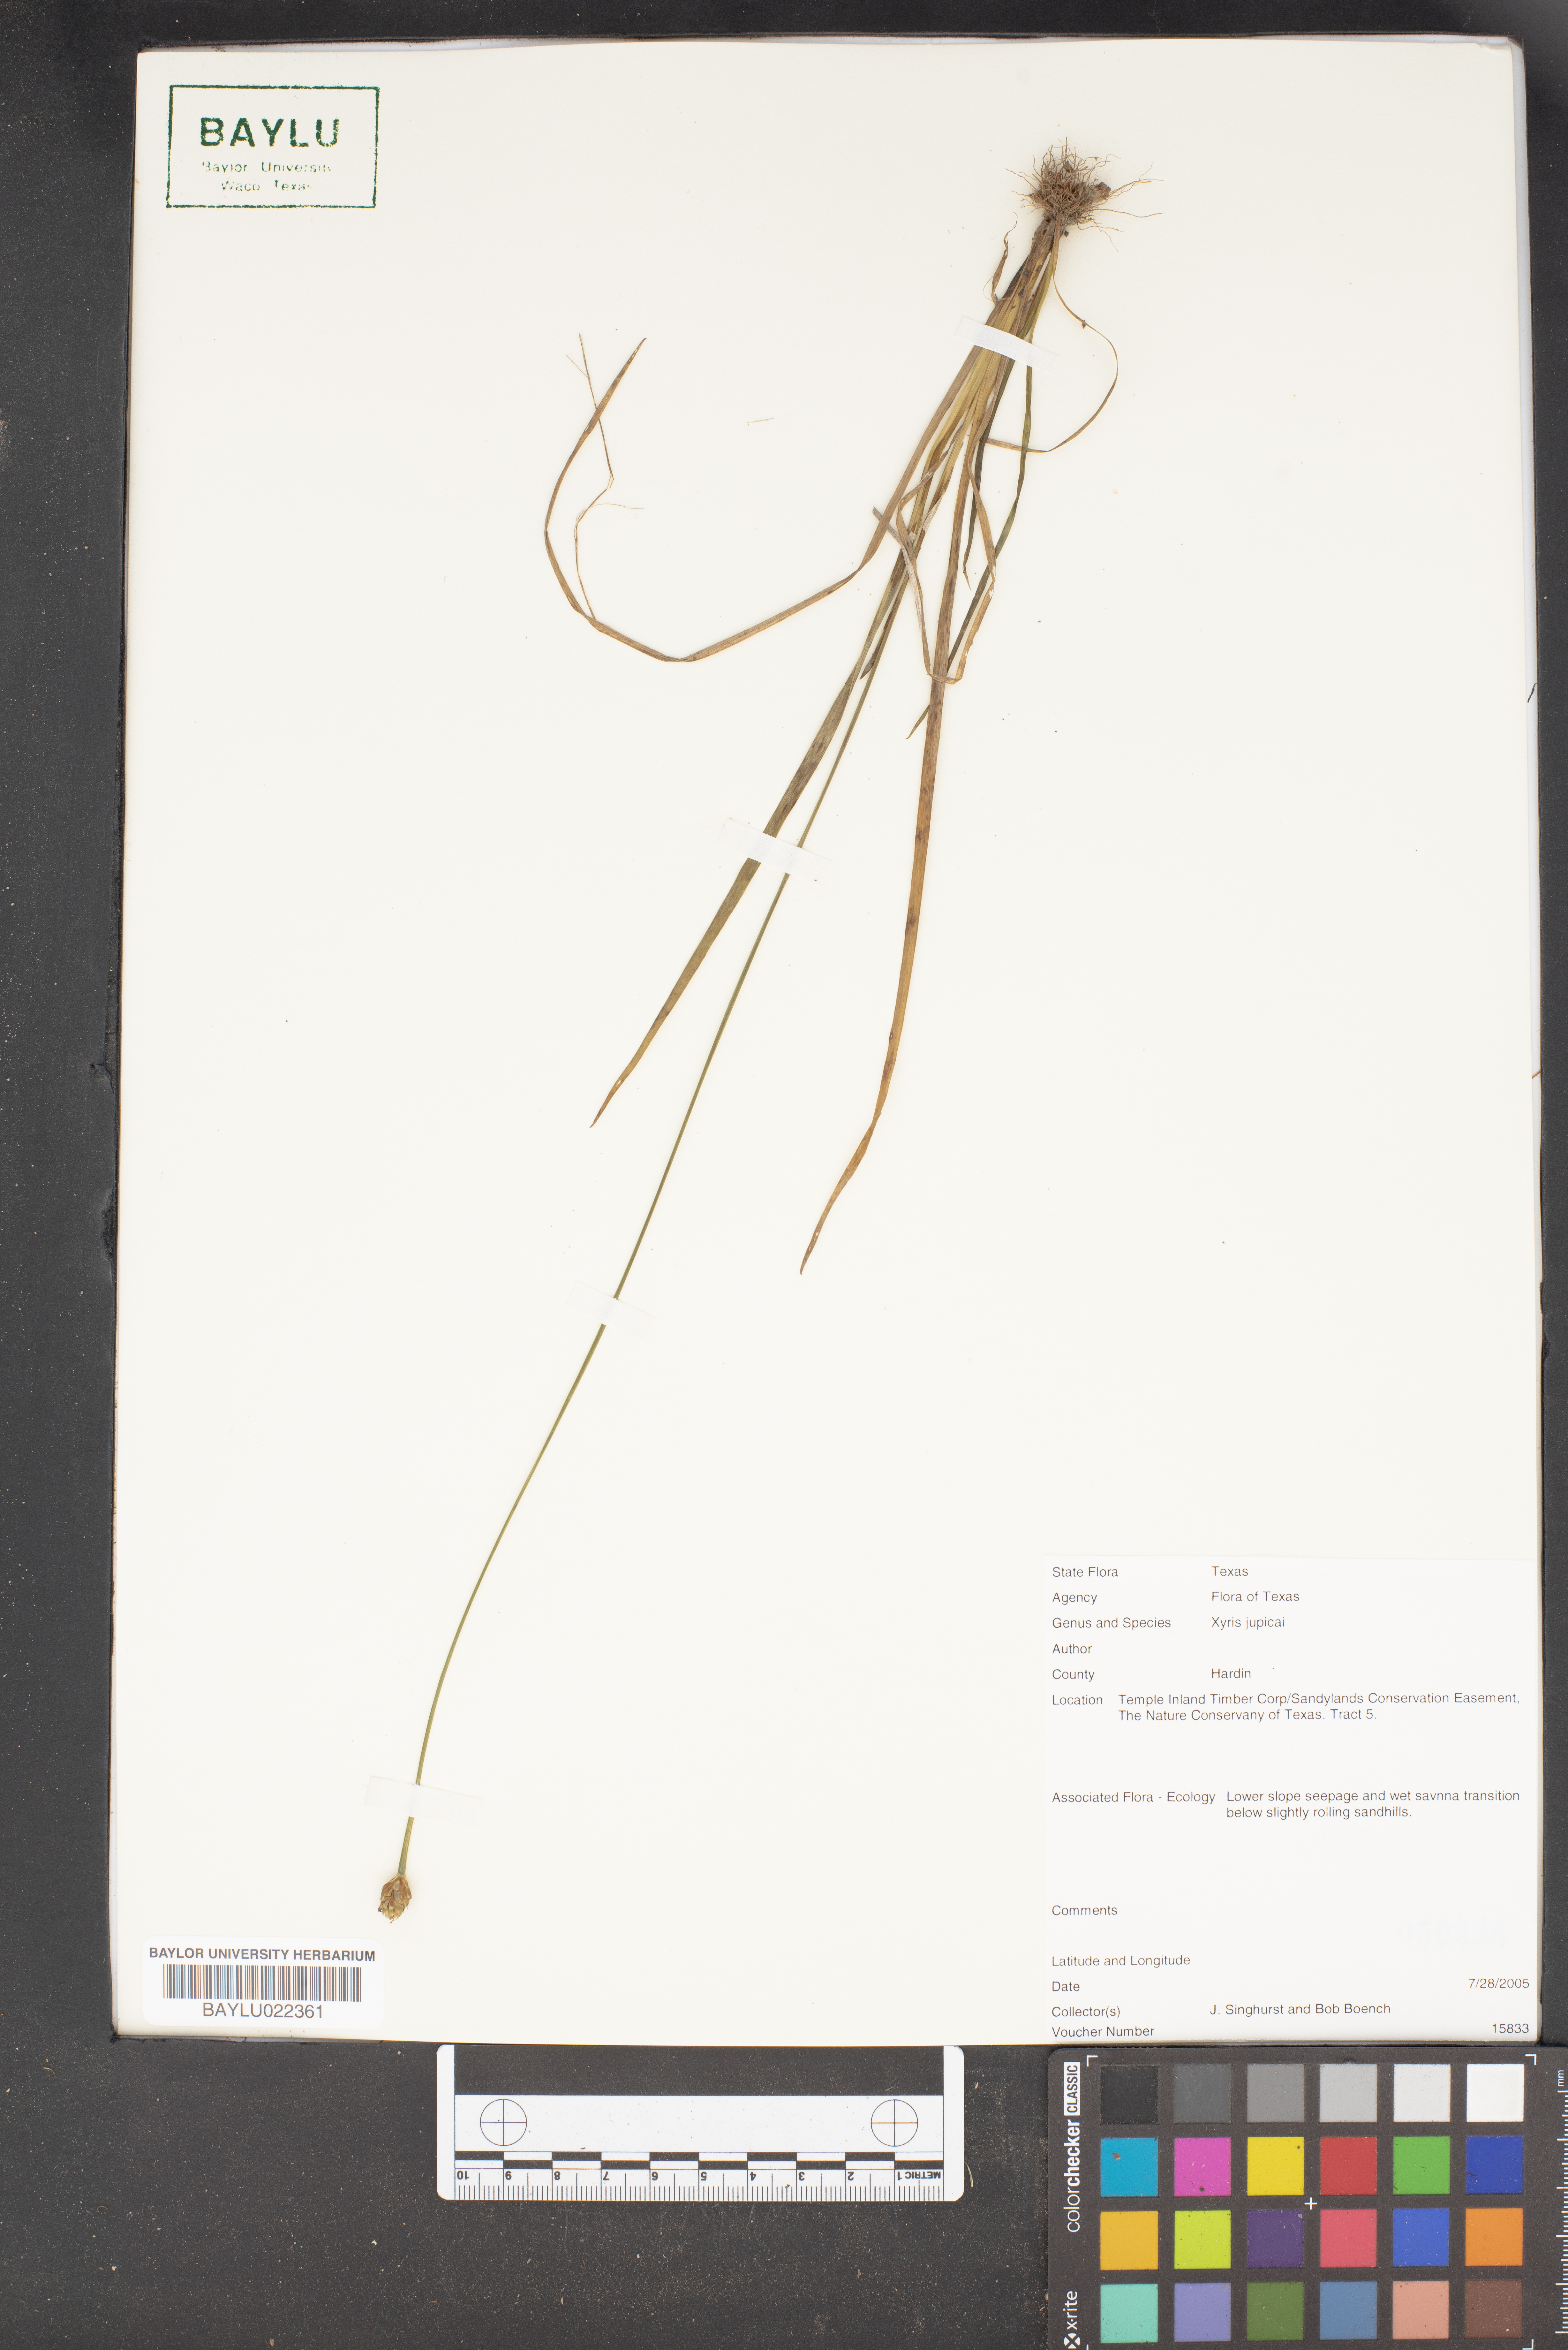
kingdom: Plantae
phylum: Tracheophyta
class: Liliopsida
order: Poales
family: Xyridaceae
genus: Xyris
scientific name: Xyris jupicai
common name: Richard's yelloweyed grass
